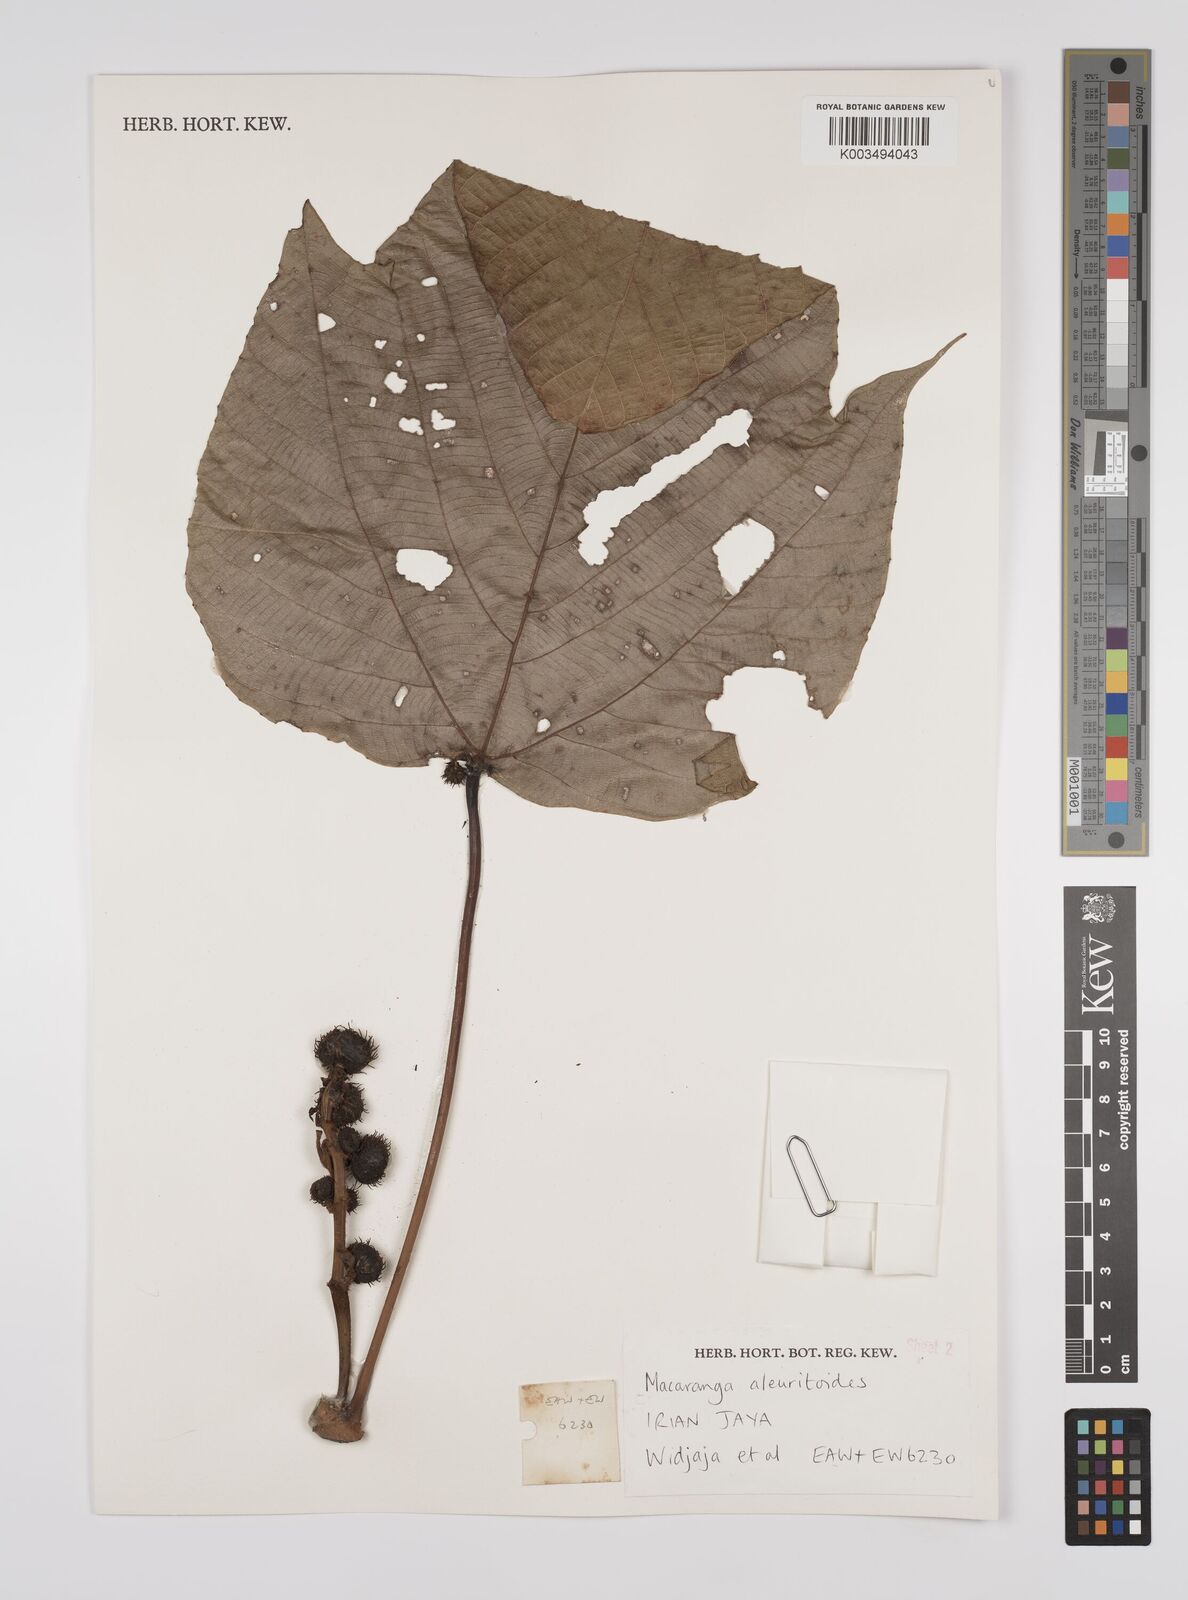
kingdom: Plantae
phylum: Tracheophyta
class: Magnoliopsida
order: Malpighiales
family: Euphorbiaceae
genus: Macaranga
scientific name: Macaranga aleuritoides
